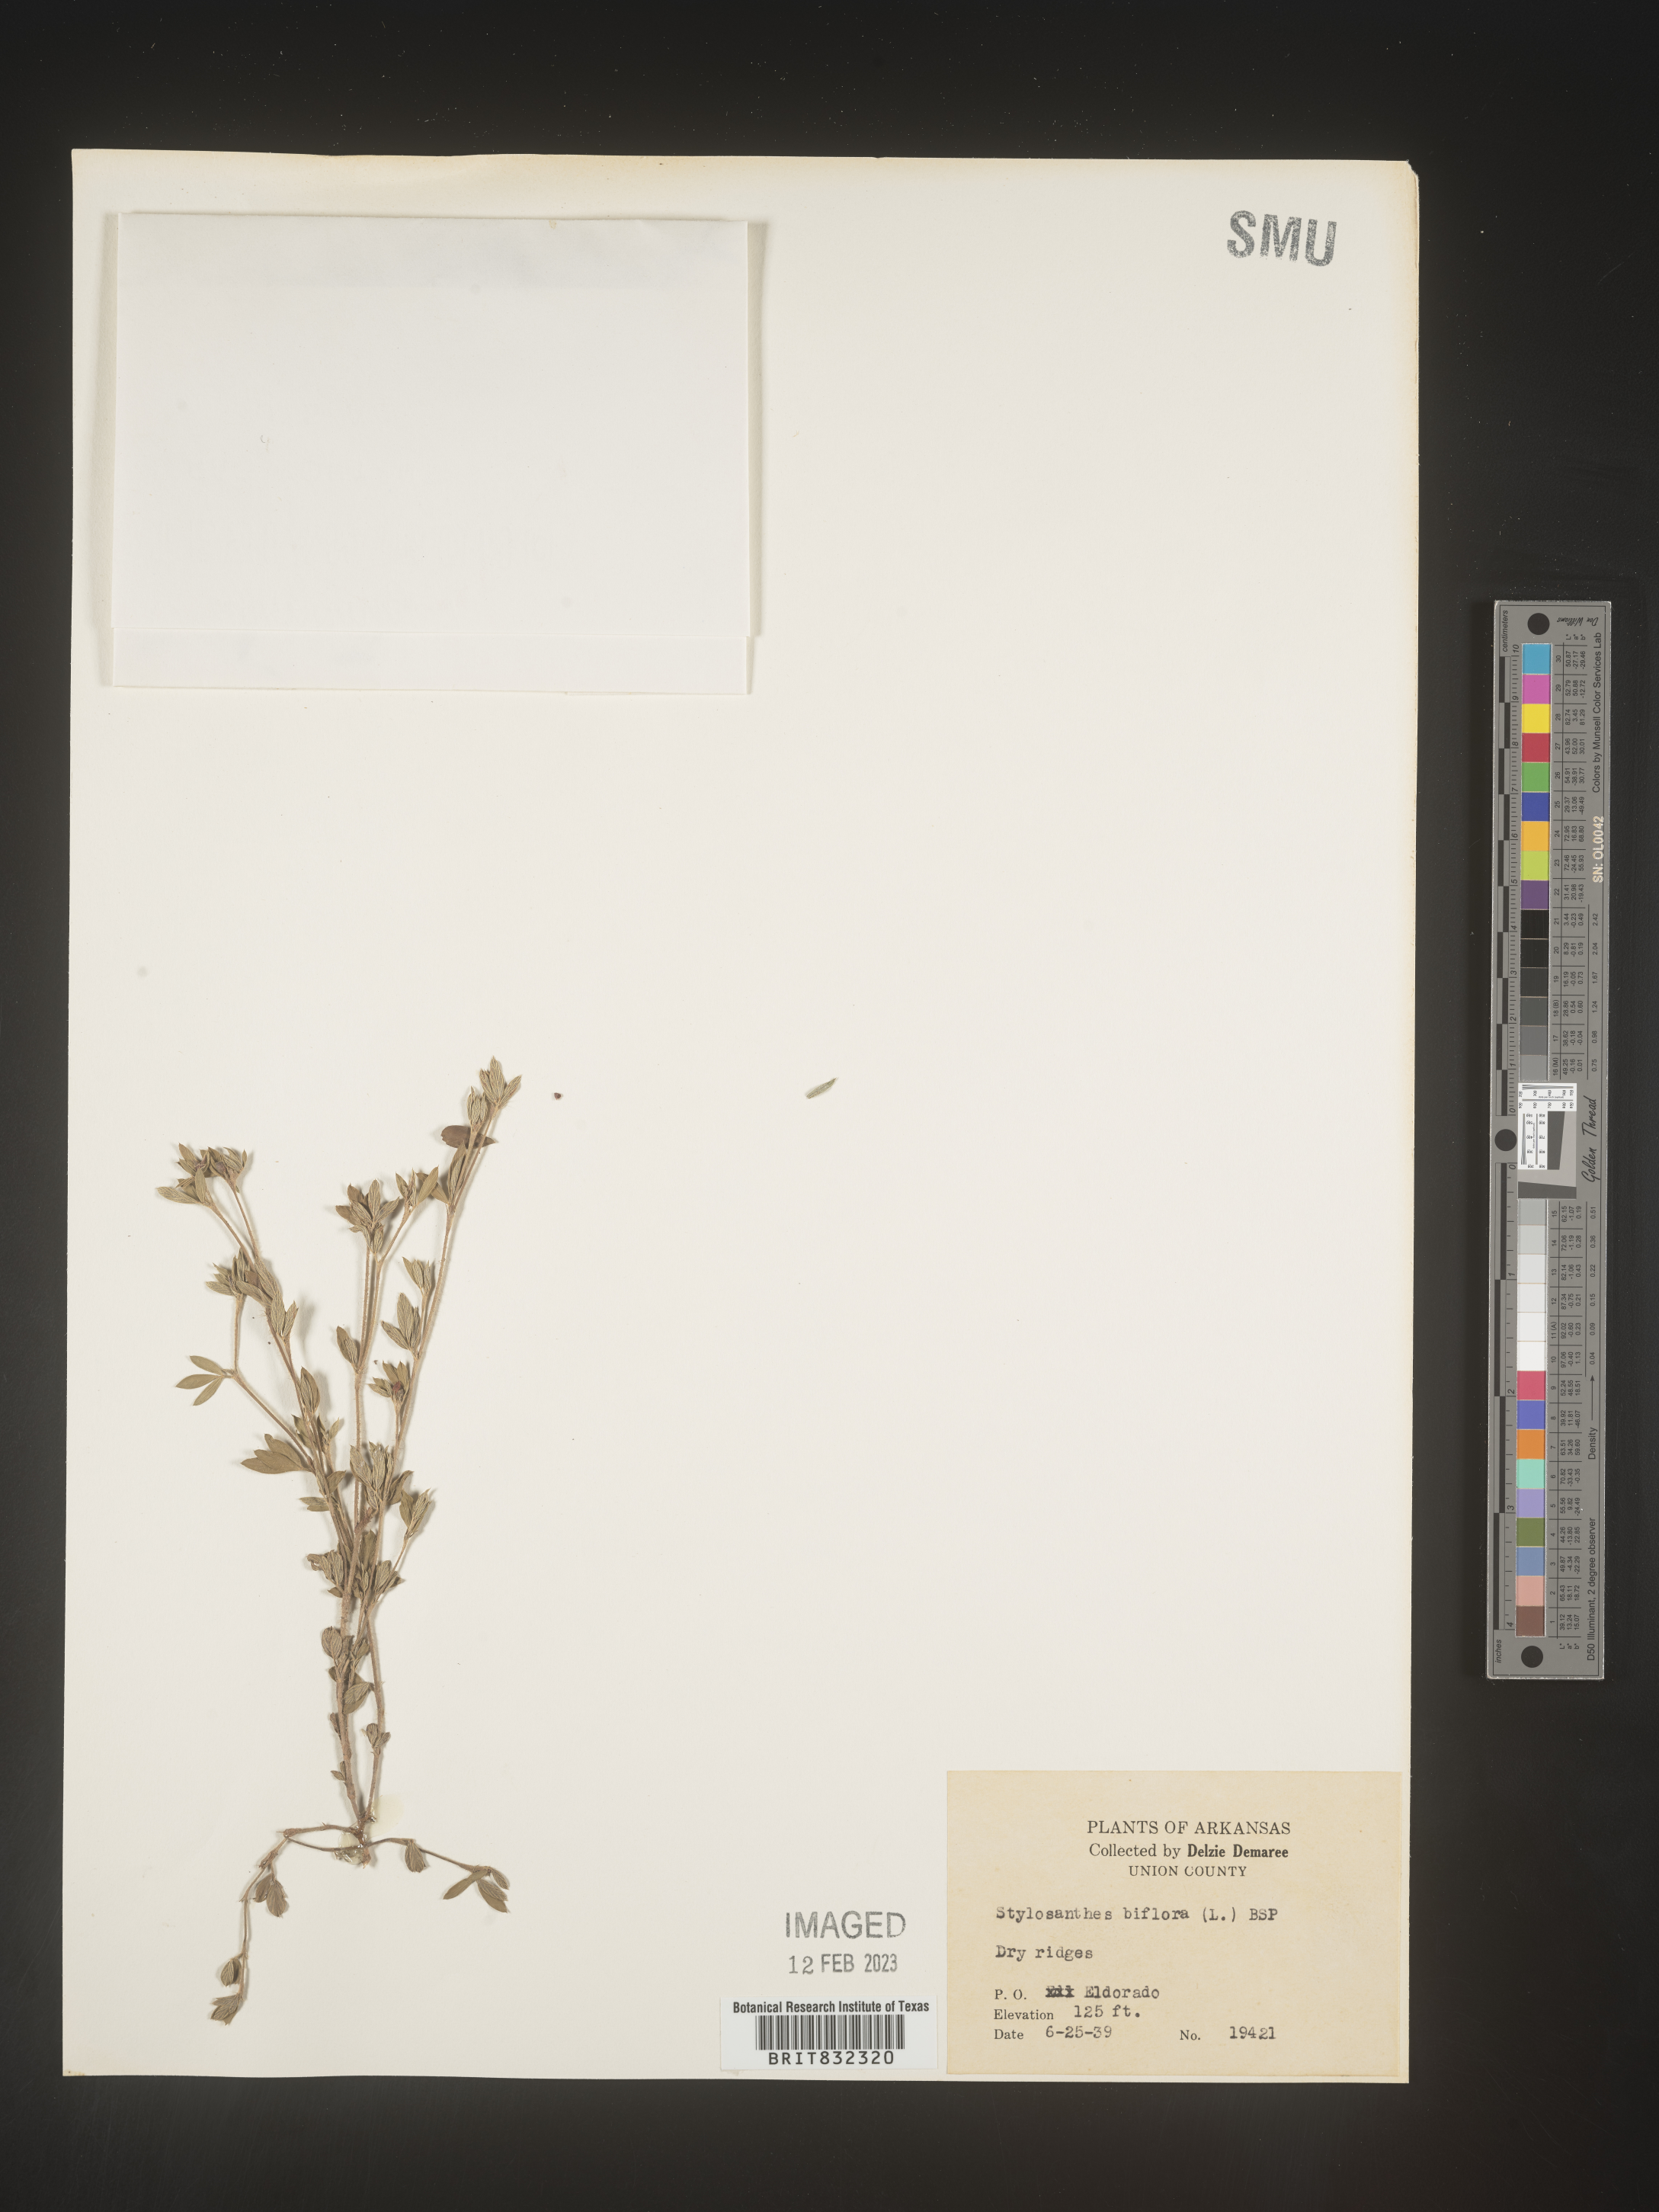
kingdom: Plantae
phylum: Tracheophyta
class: Magnoliopsida
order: Fabales
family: Fabaceae
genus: Stylosanthes
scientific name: Stylosanthes biflora
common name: Two-flower pencil-flower
